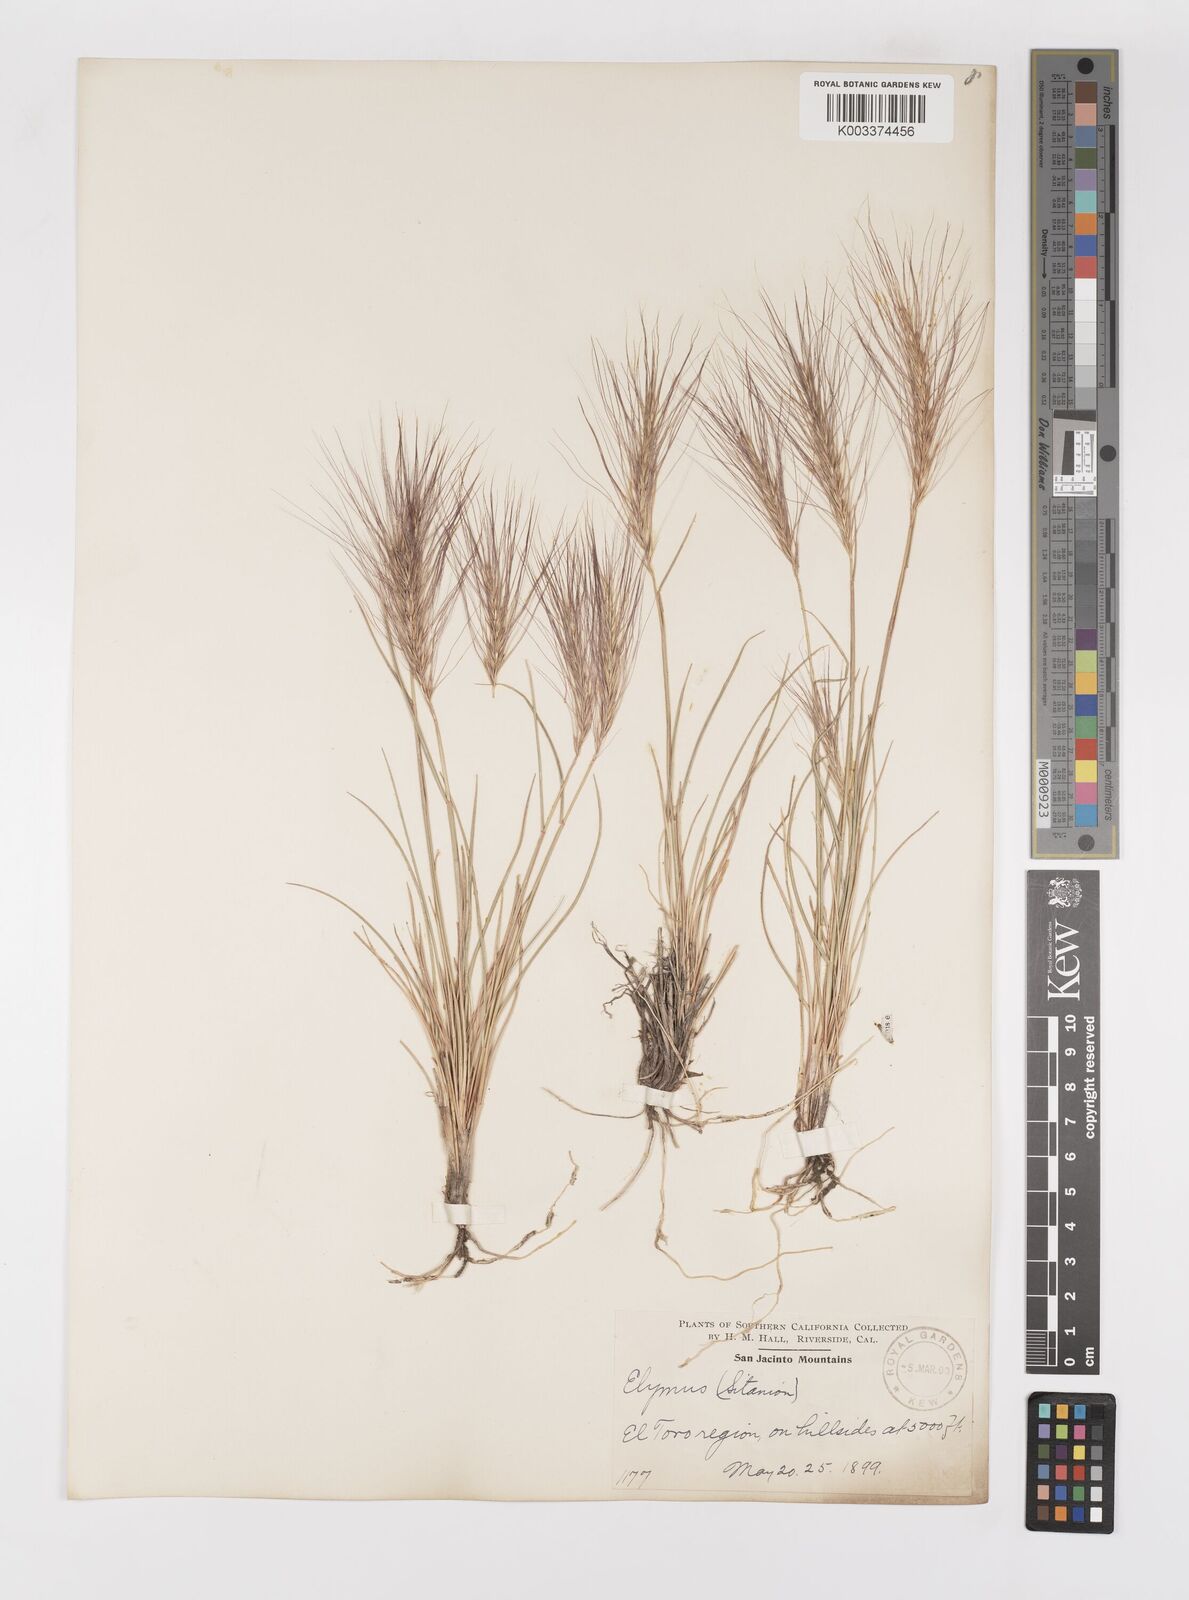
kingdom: Plantae
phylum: Tracheophyta
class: Liliopsida
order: Poales
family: Poaceae
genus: Elymus
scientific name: Elymus multisetus
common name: Big squirreltail
